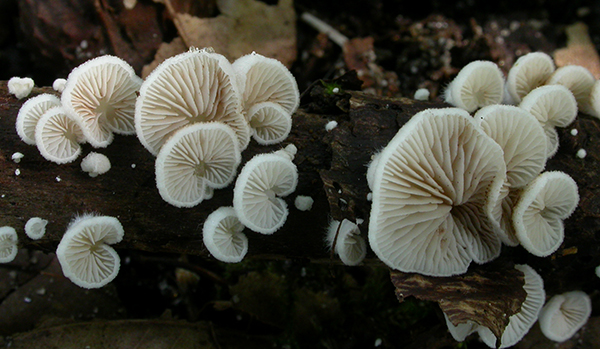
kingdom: Fungi
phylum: Basidiomycota
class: Agaricomycetes
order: Agaricales
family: Crepidotaceae
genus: Crepidotus
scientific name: Crepidotus subverrucisporus
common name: mandelsporet muslingesvamp
